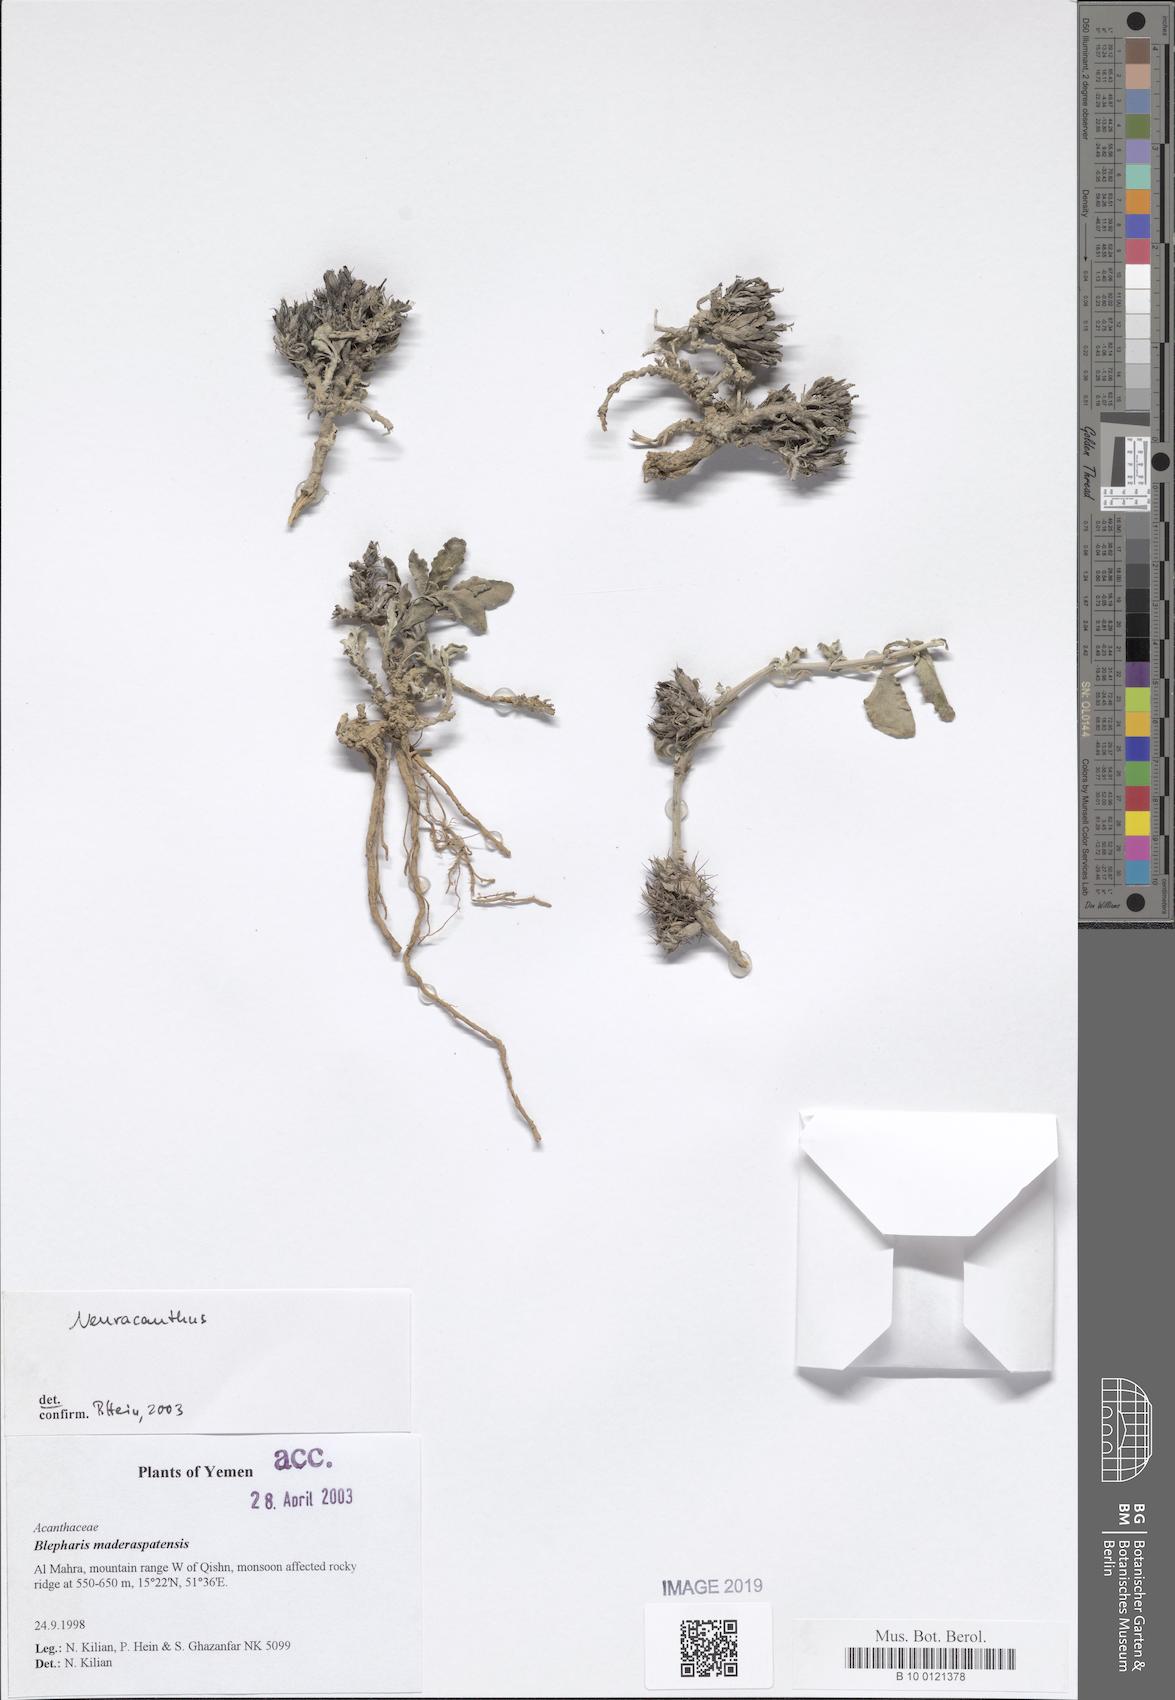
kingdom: Plantae
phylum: Tracheophyta
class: Magnoliopsida
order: Lamiales
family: Acanthaceae
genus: Neuracanthus
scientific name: Neuracanthus
